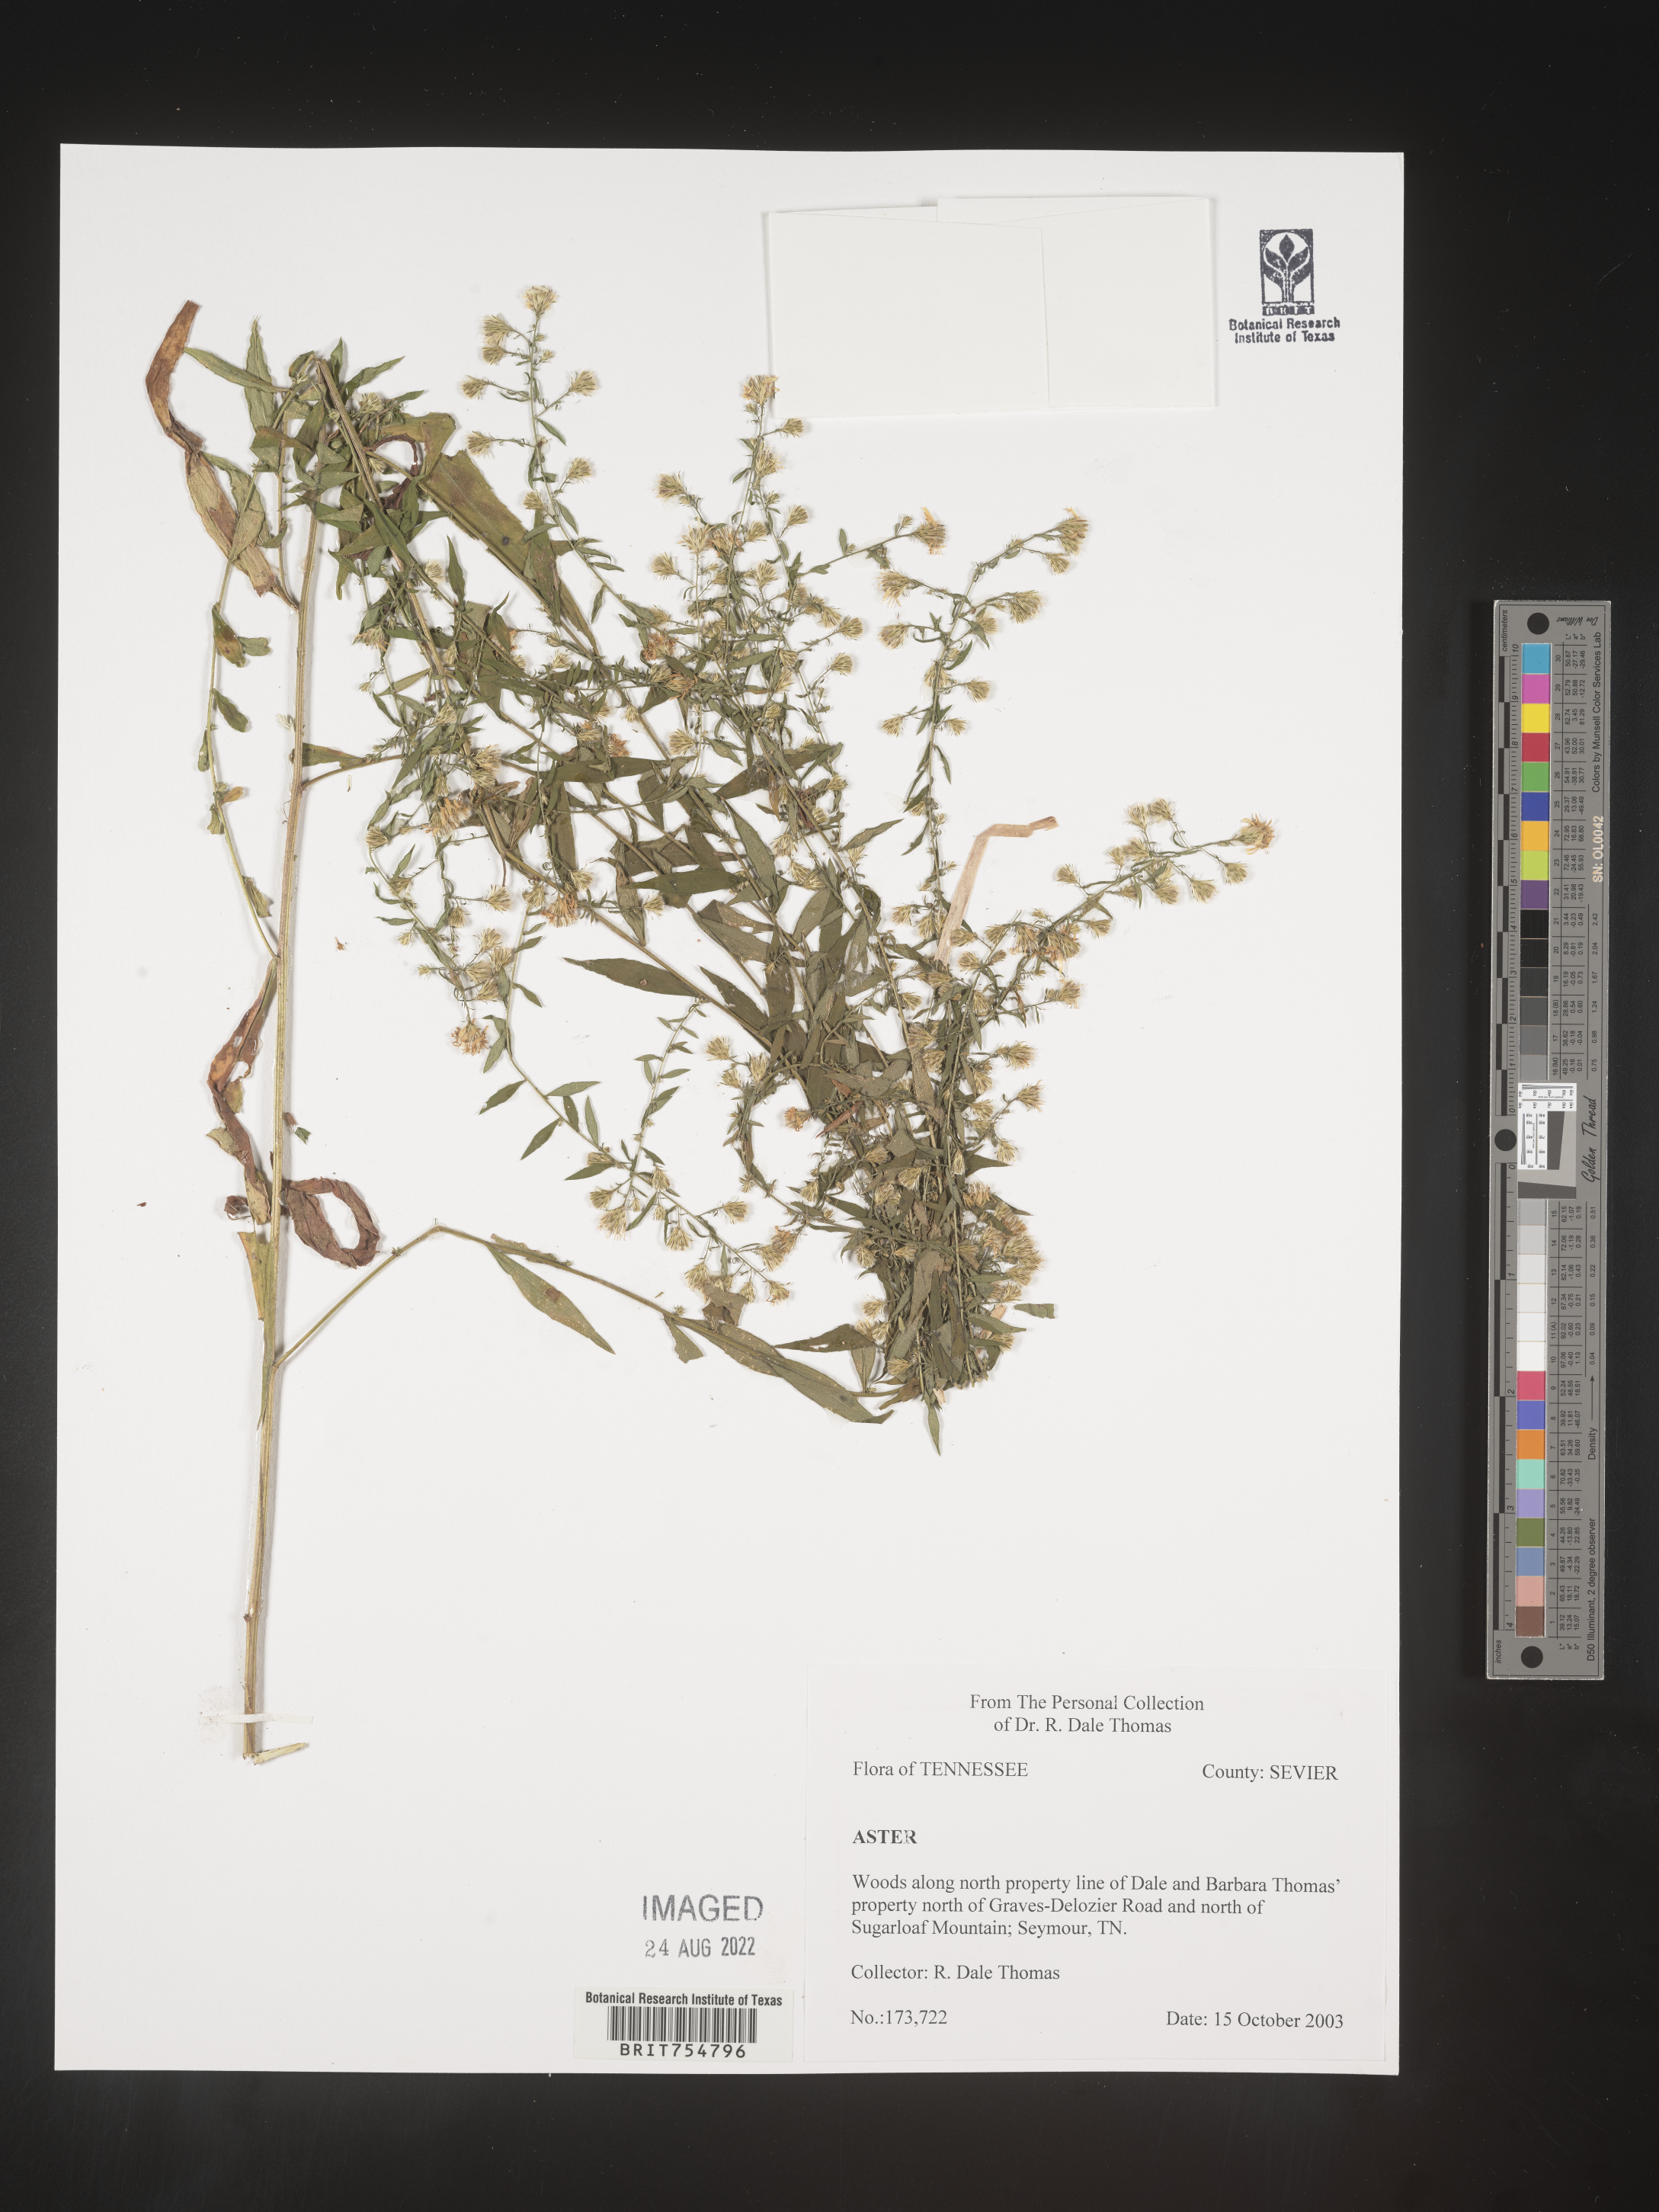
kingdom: Plantae
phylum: Tracheophyta
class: Magnoliopsida
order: Asterales
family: Asteraceae
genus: Symphyotrichum
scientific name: Symphyotrichum
